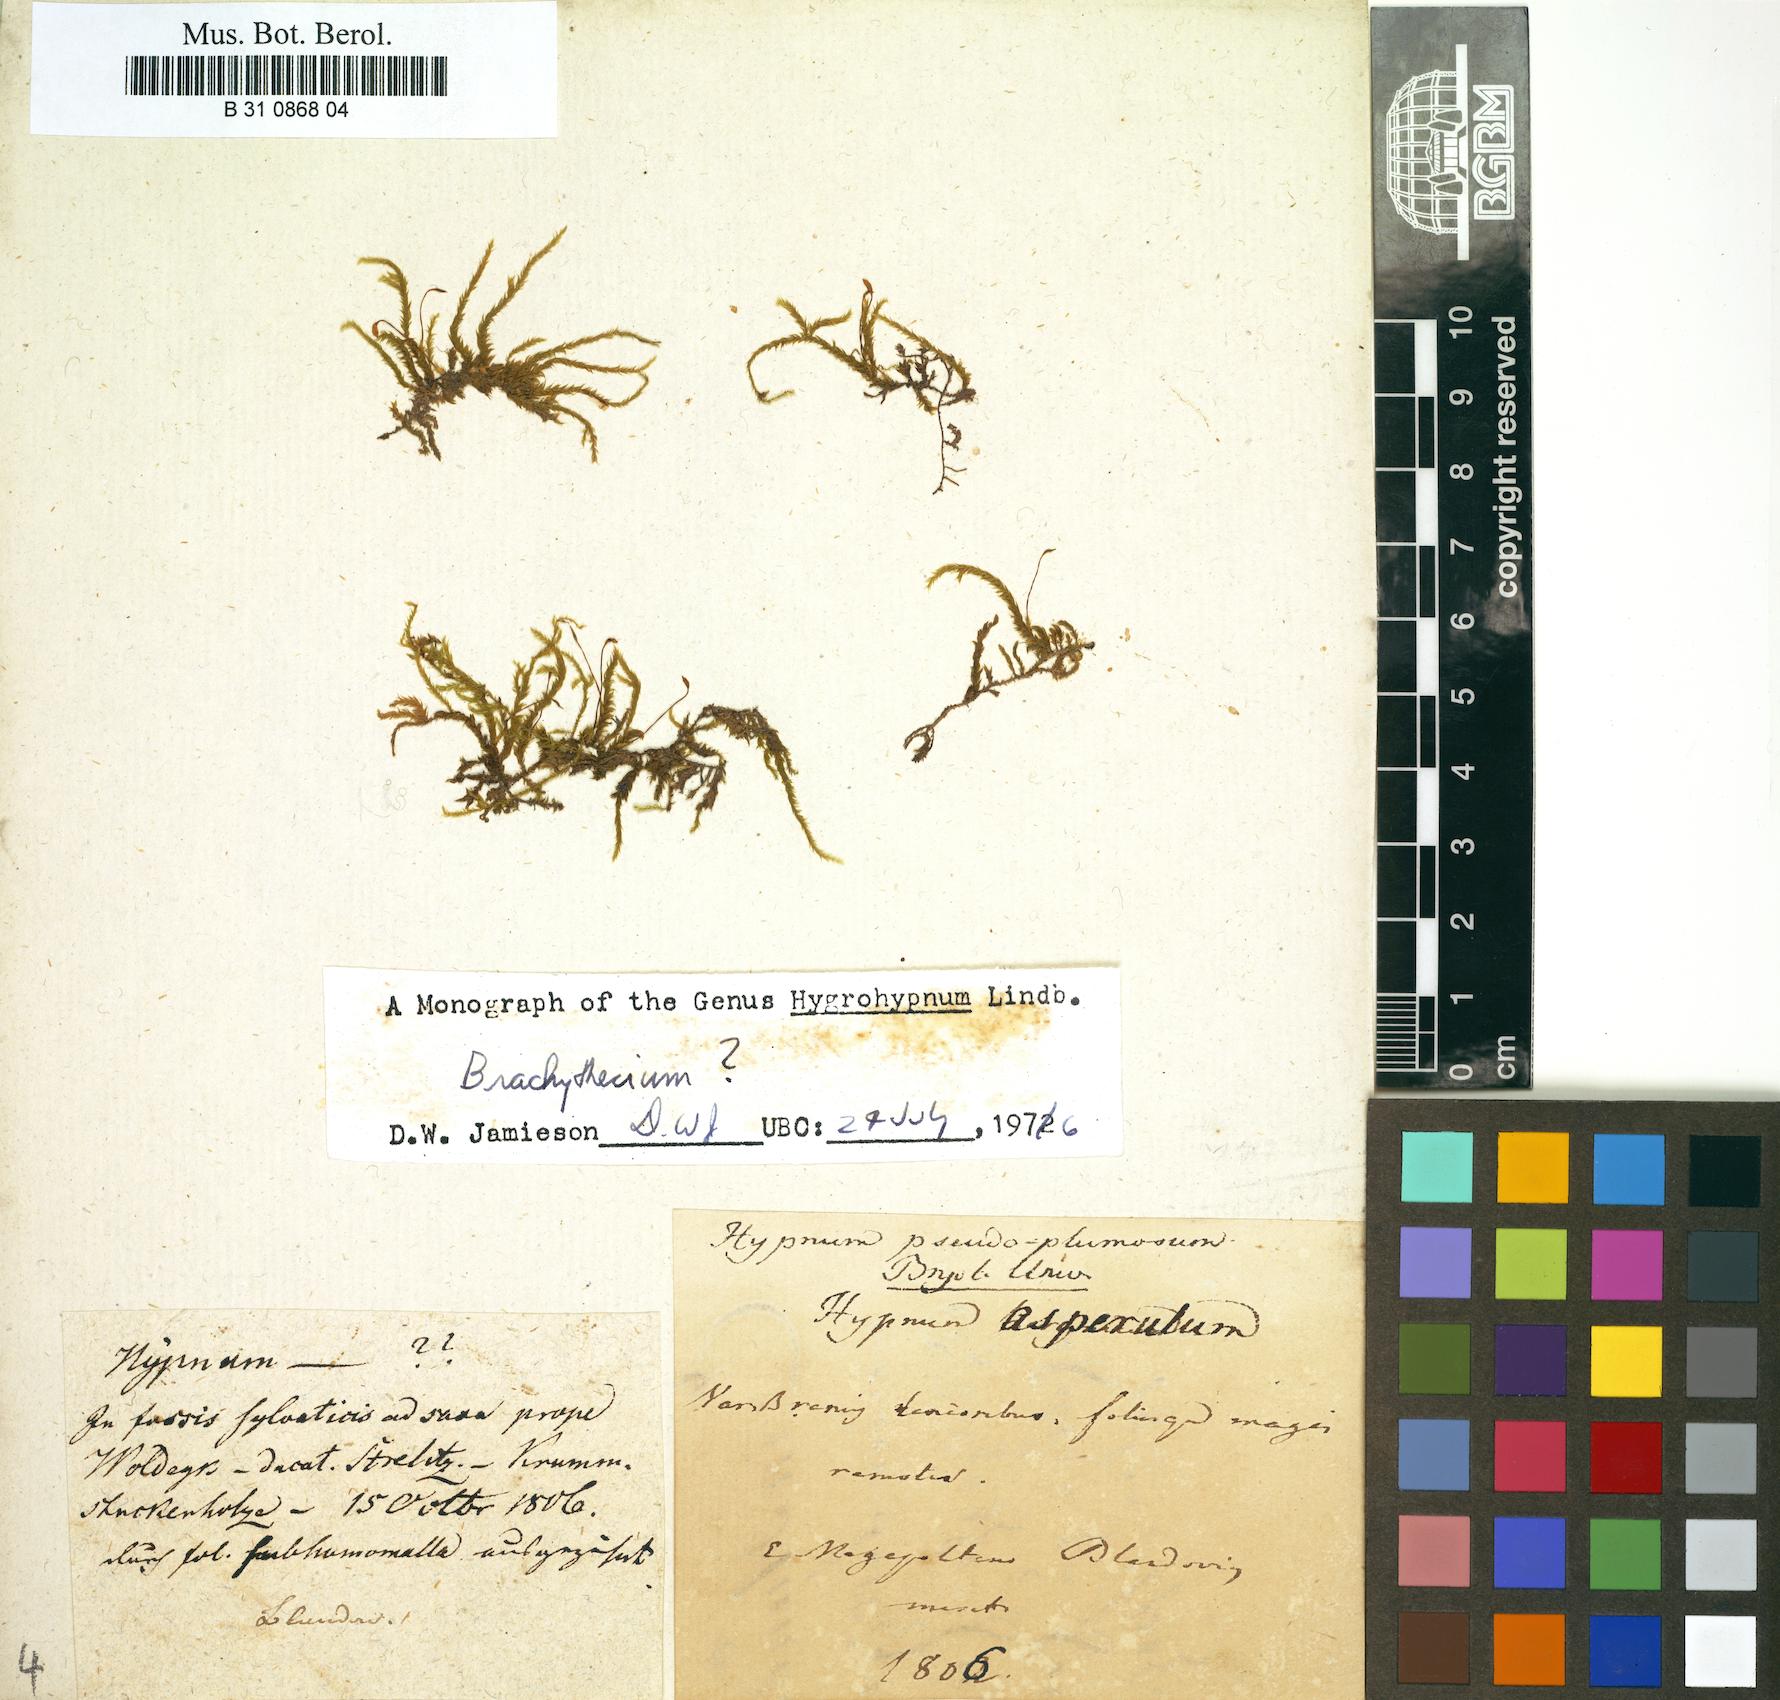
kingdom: Plantae
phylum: Bryophyta
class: Bryopsida
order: Hypnales
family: Brachytheciaceae
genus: Sciuro-hypnum
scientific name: Sciuro-hypnum plumosum
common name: Rusty feather-moss
